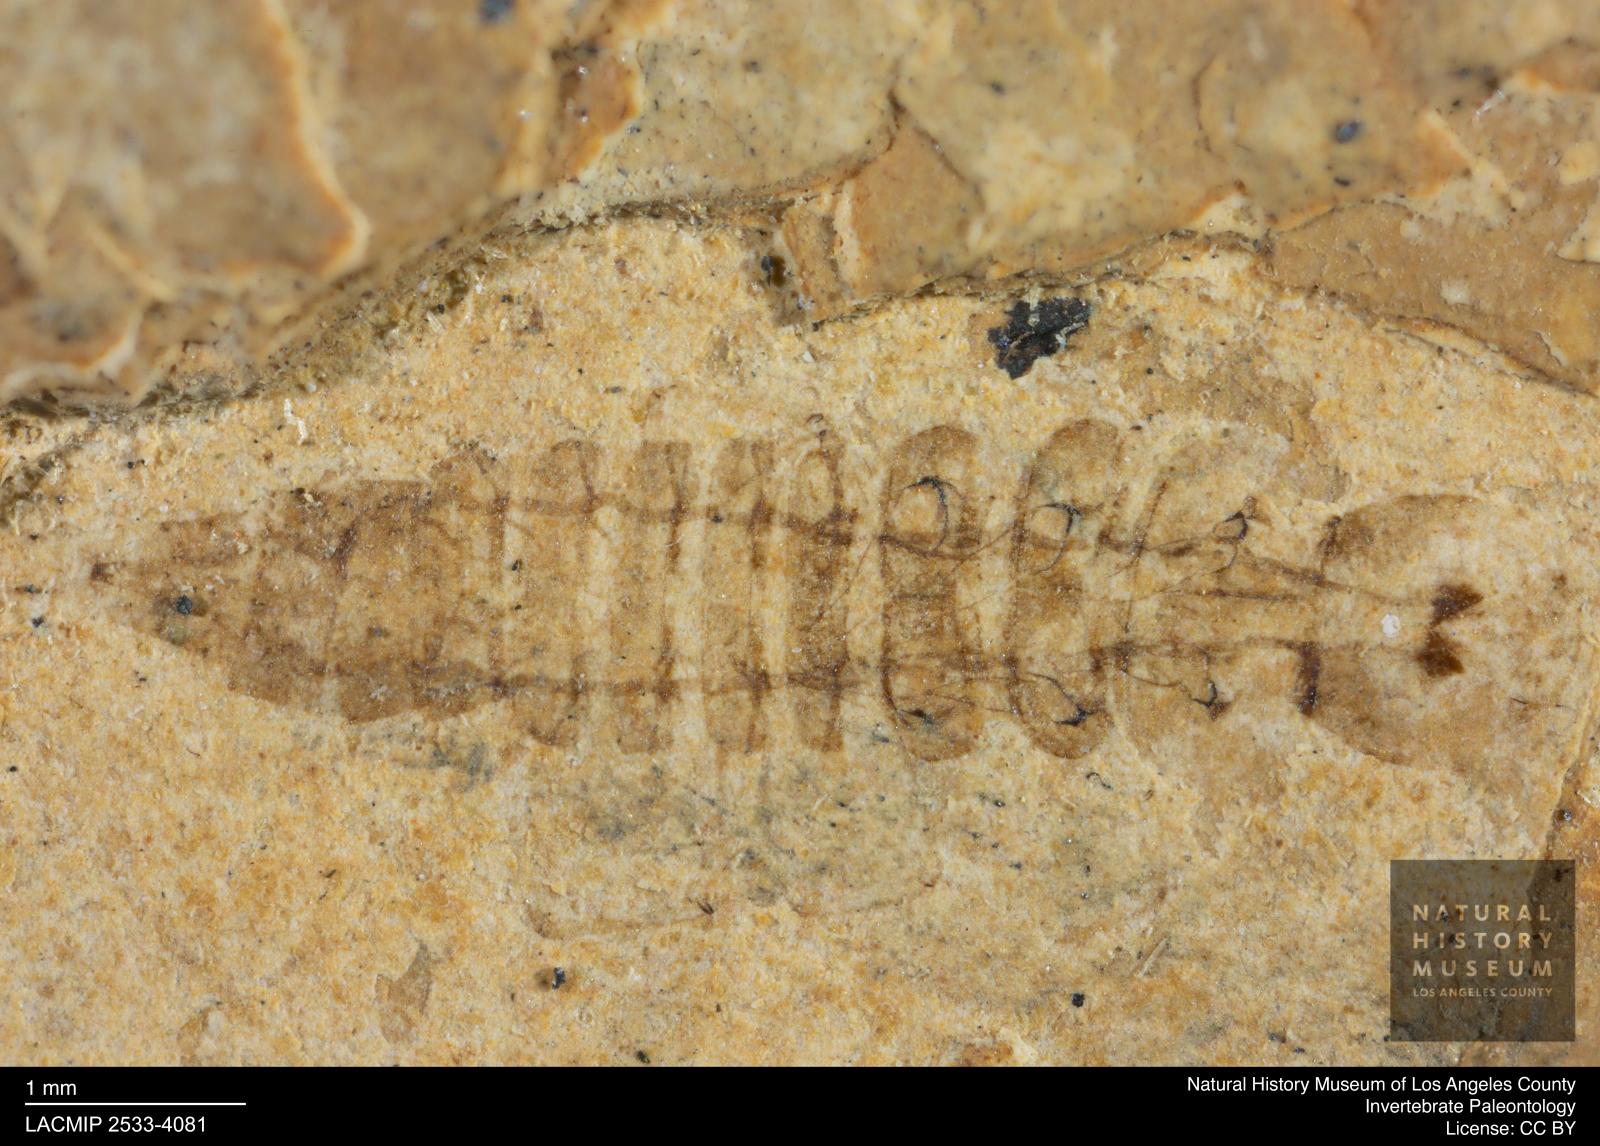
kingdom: Animalia
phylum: Arthropoda
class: Insecta
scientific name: Insecta
